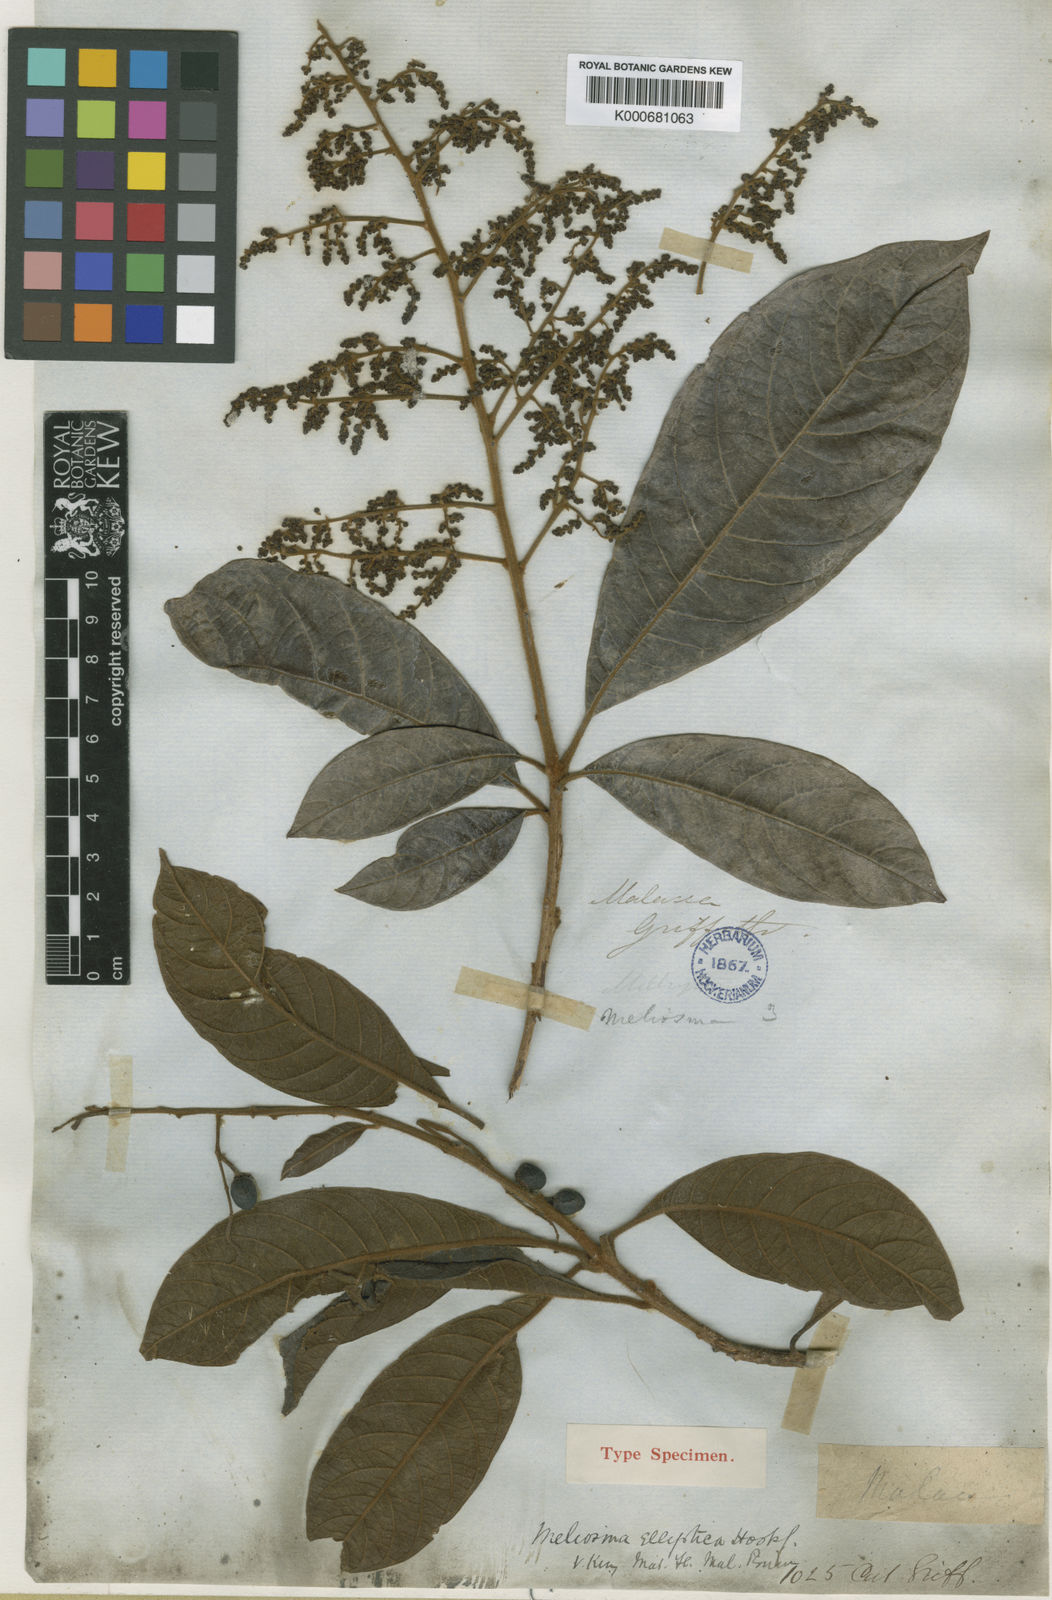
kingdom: Plantae
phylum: Tracheophyta
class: Magnoliopsida
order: Proteales
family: Sabiaceae
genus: Meliosma
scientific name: Meliosma simplicifolia
